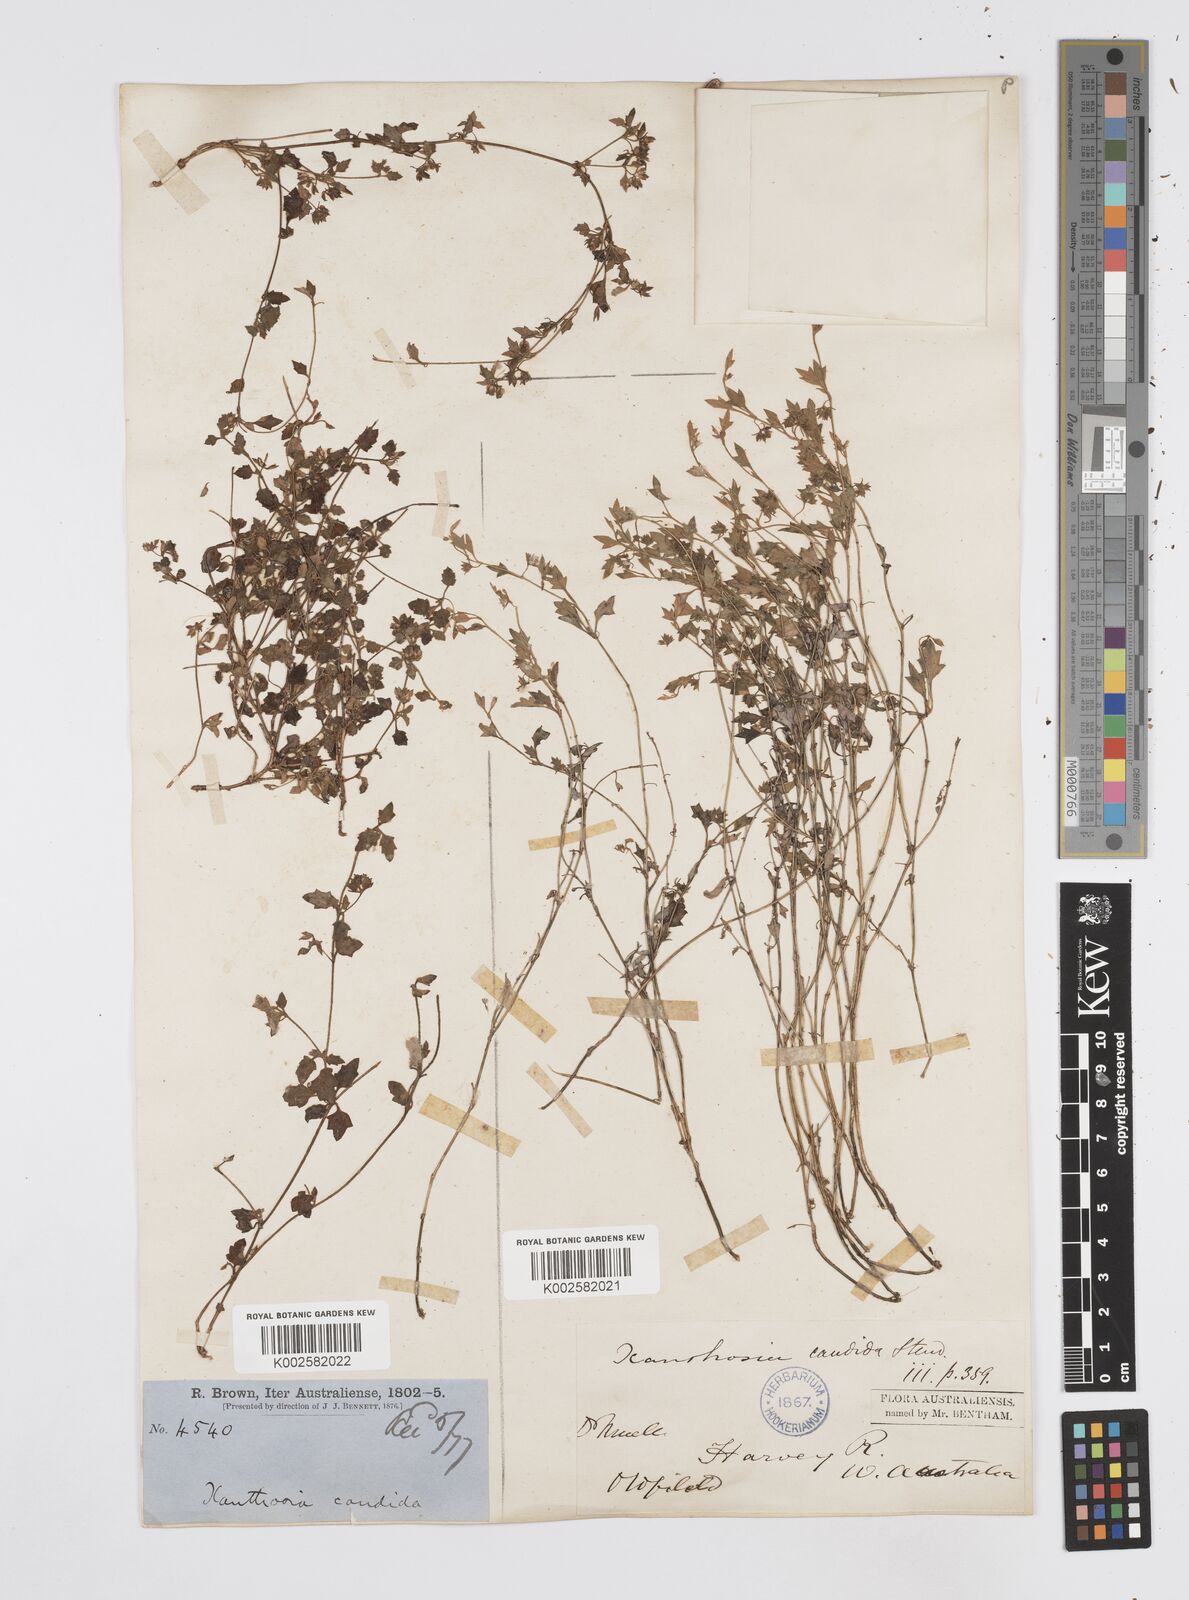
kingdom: Plantae
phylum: Tracheophyta
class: Magnoliopsida
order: Apiales
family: Apiaceae
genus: Xanthosia
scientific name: Xanthosia candida
